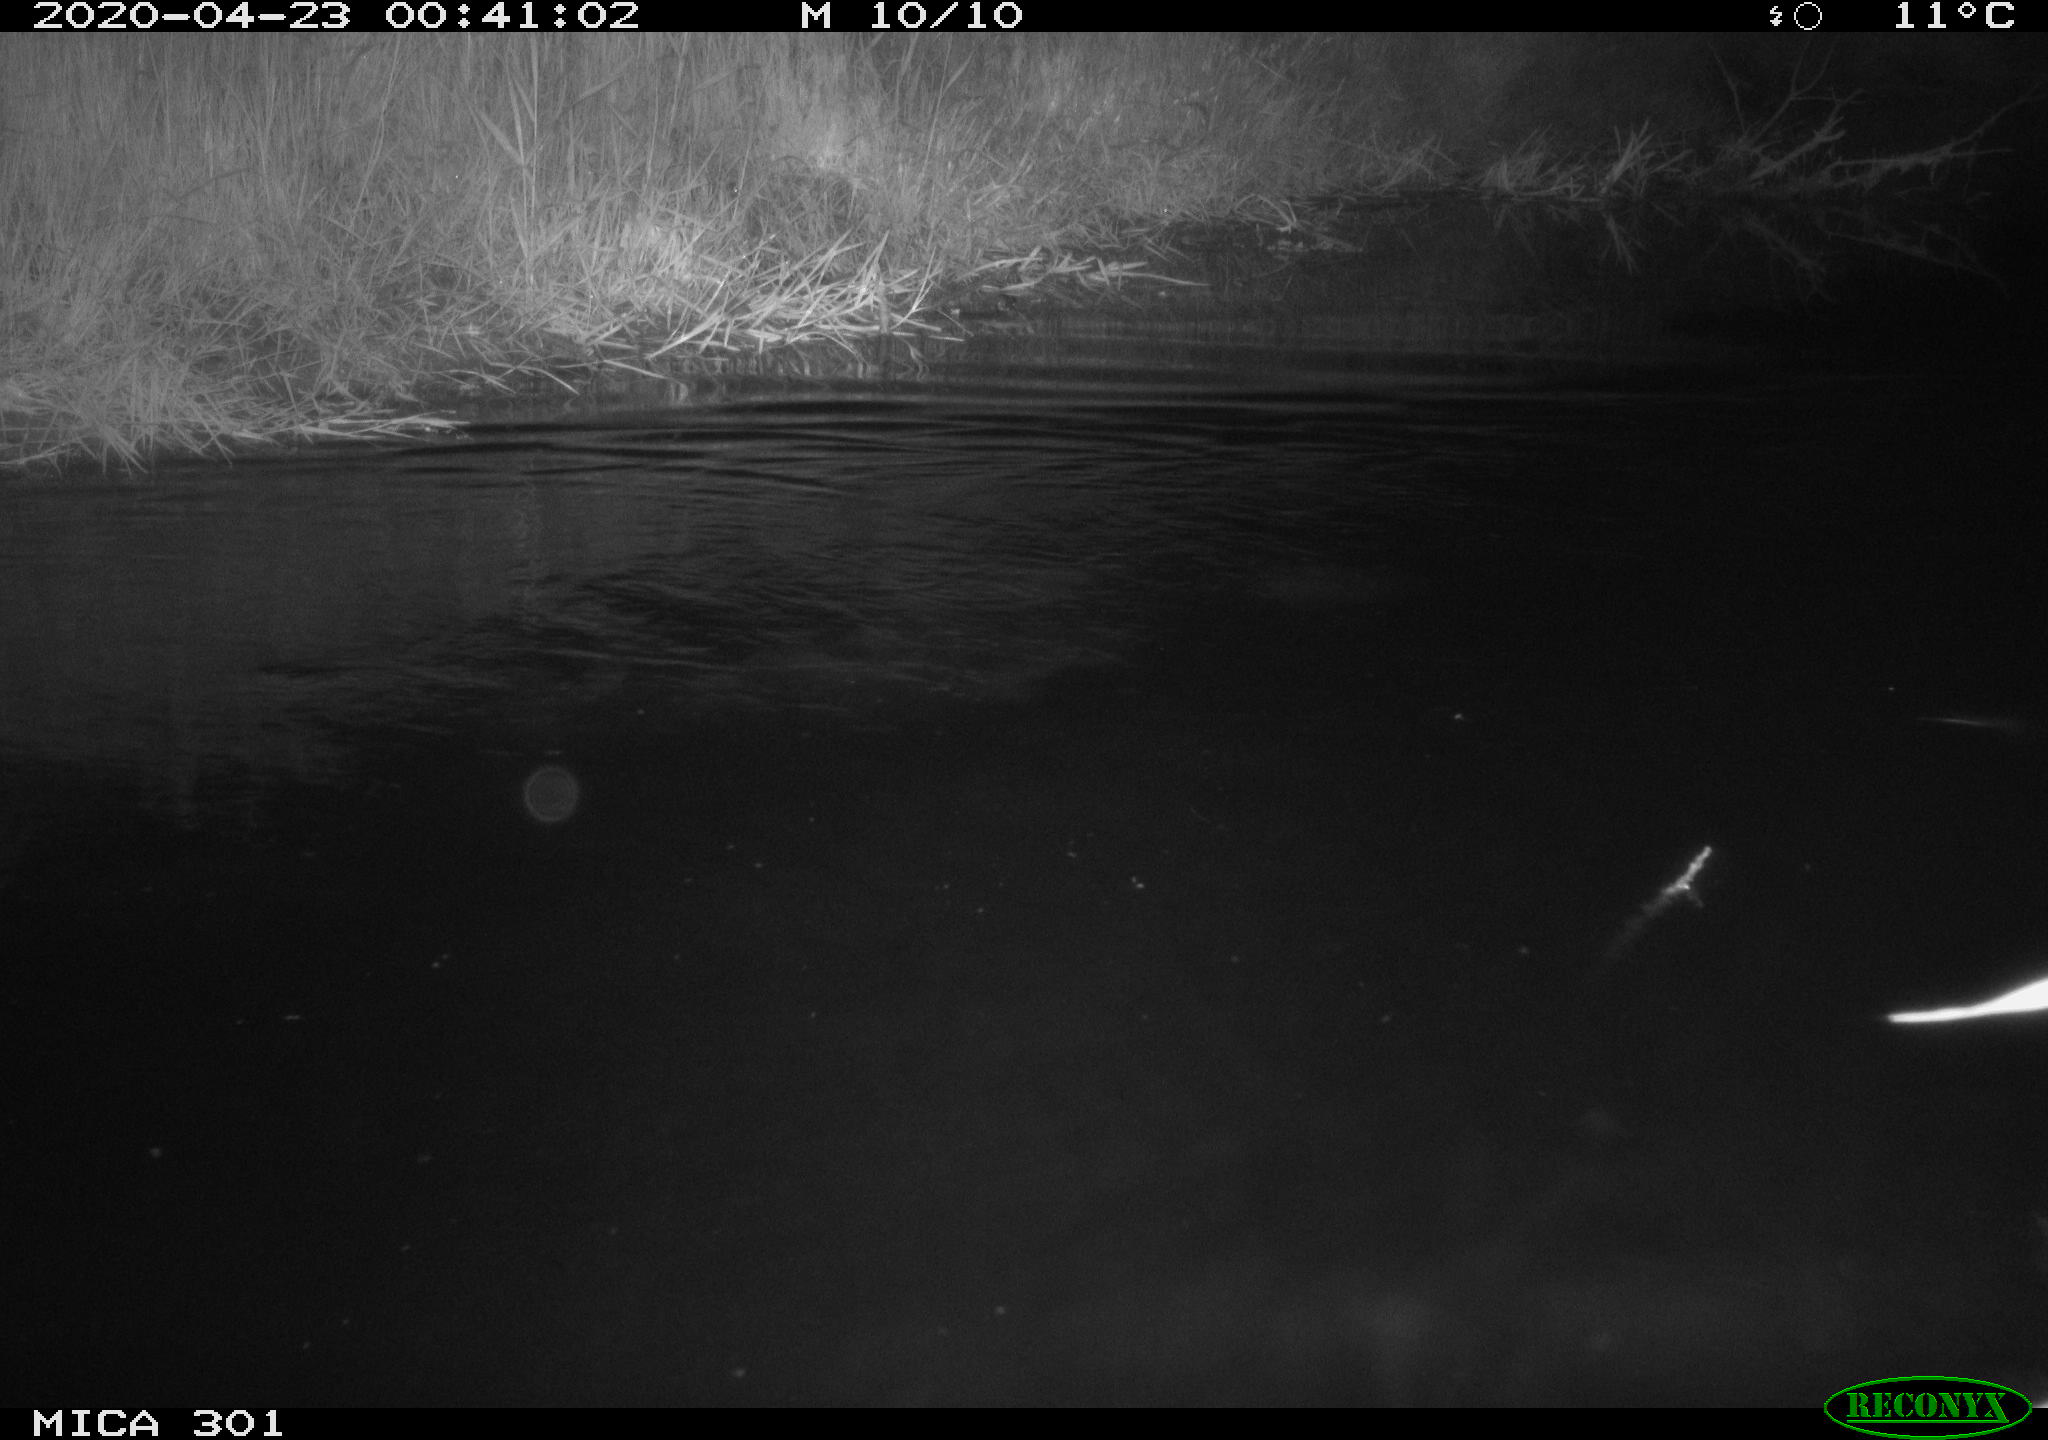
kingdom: Animalia
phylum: Chordata
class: Mammalia
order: Rodentia
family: Castoridae
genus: Castor
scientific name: Castor fiber
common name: Eurasian beaver
